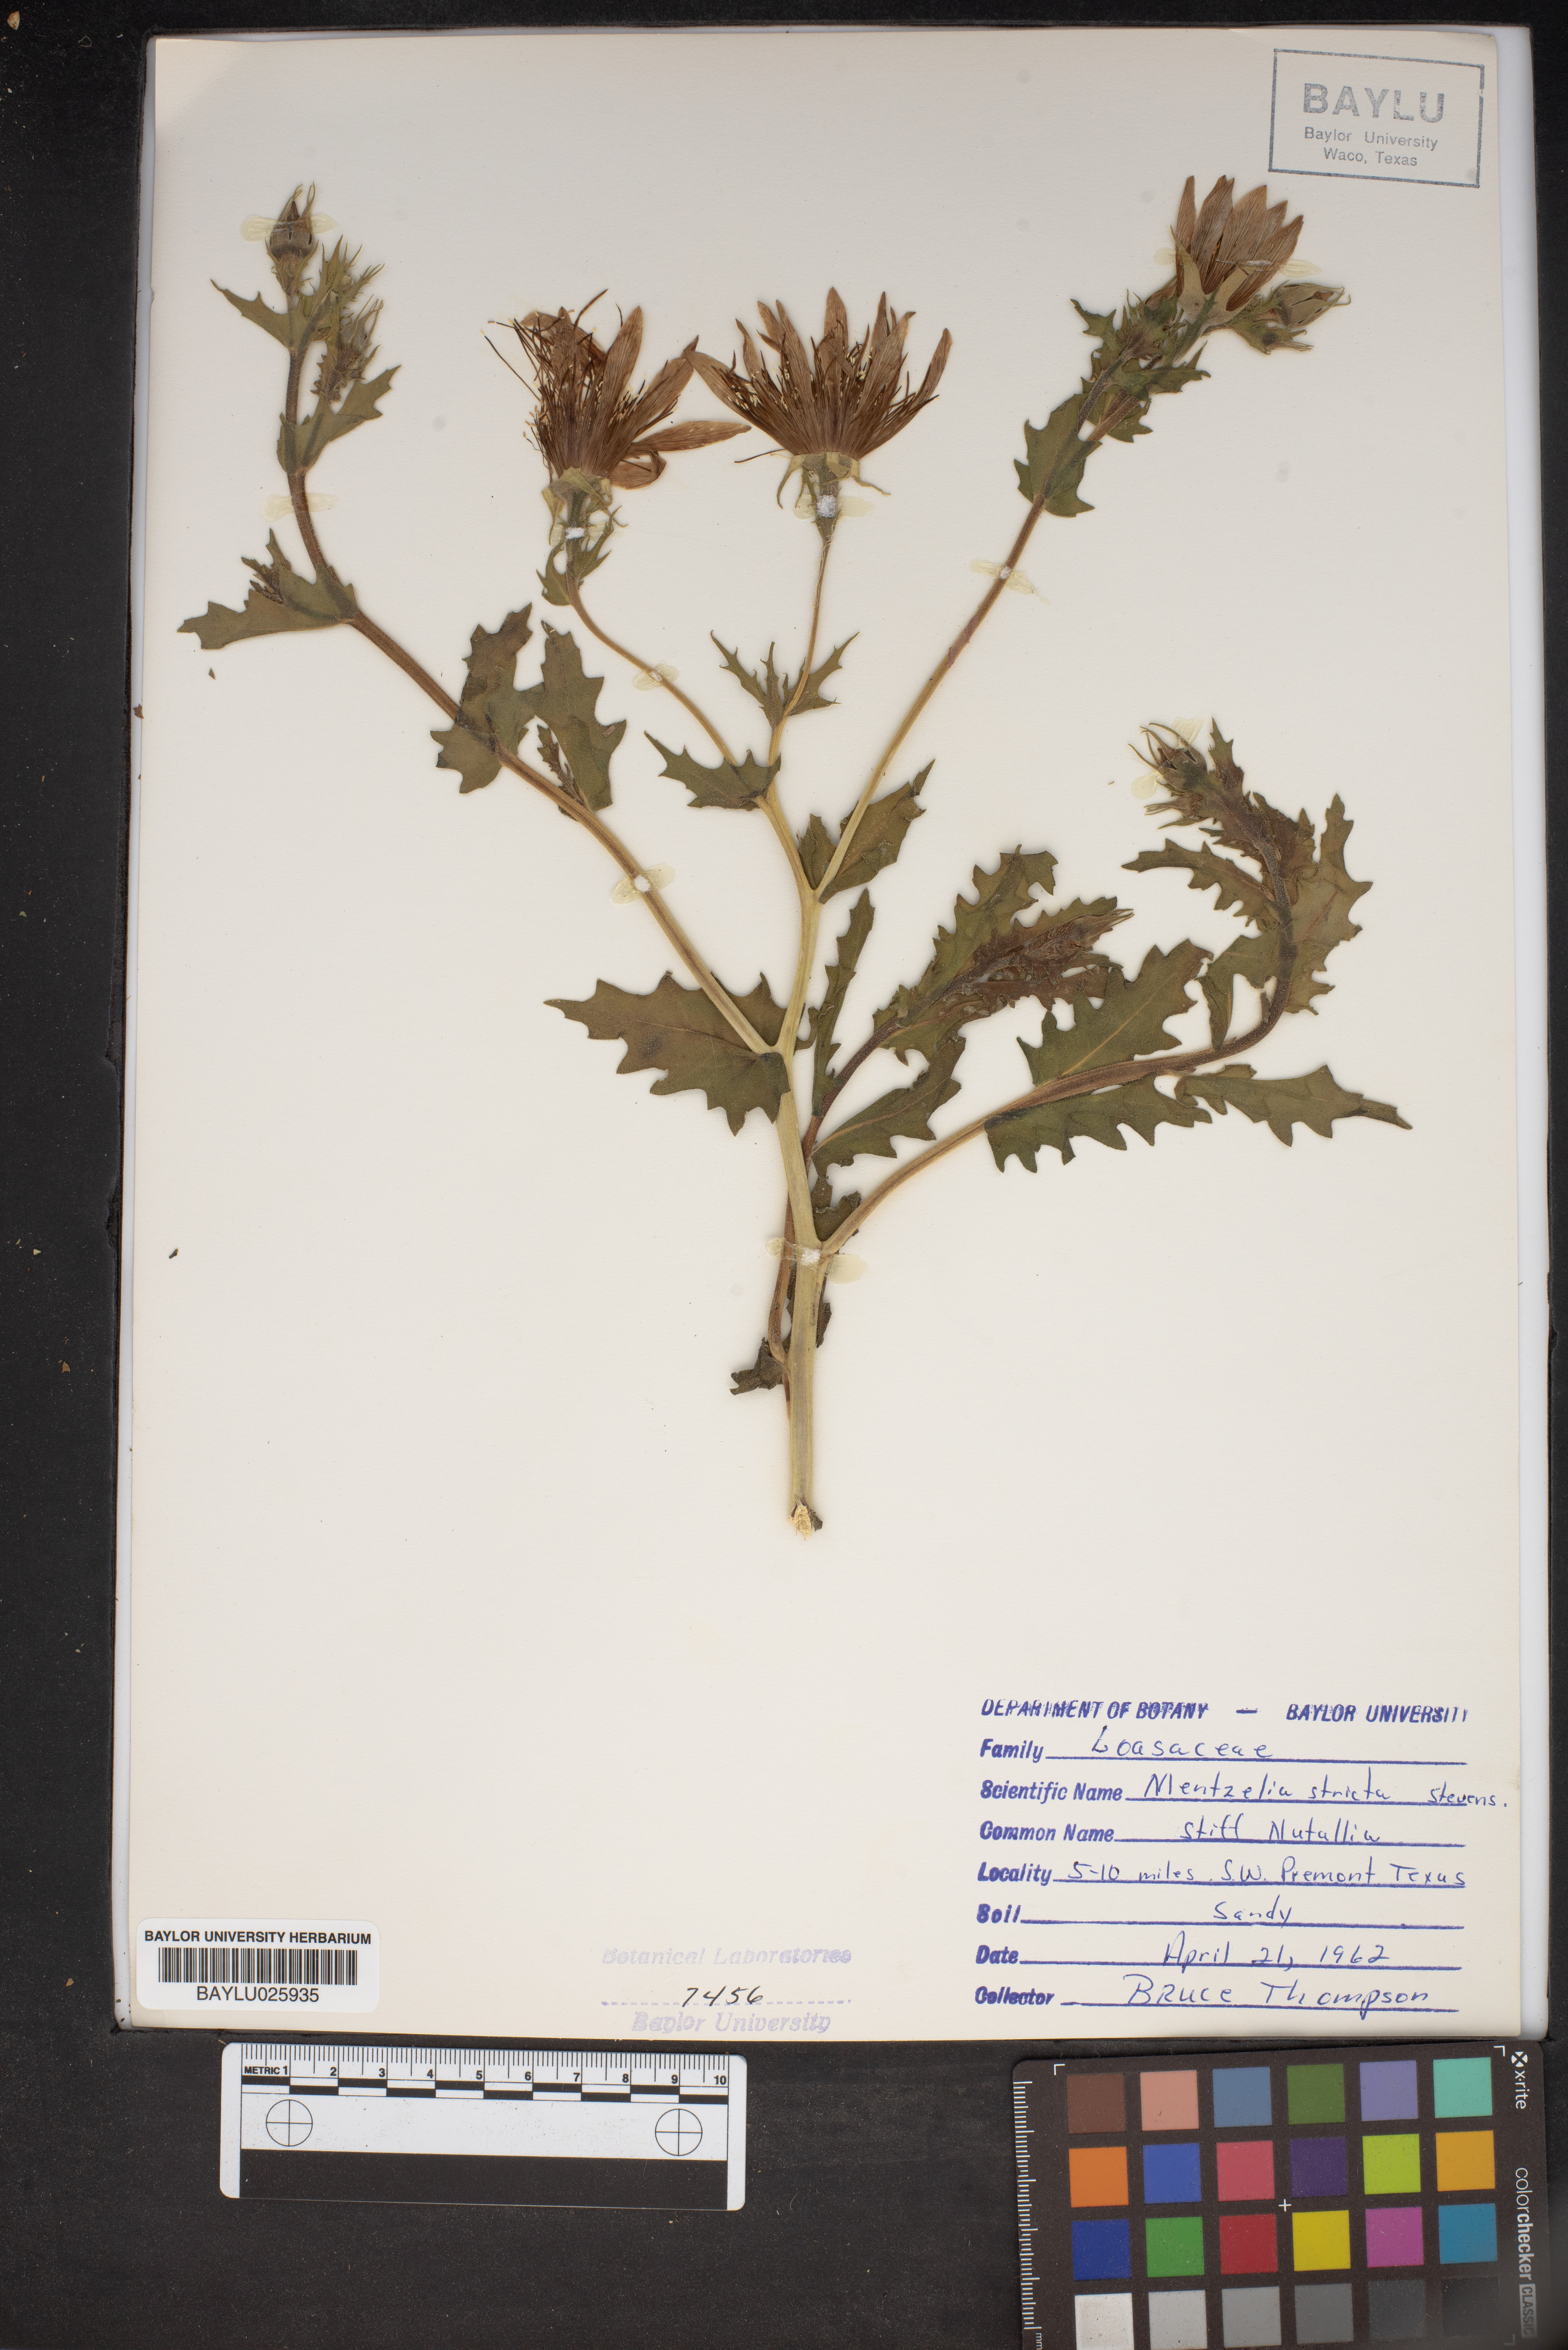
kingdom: Plantae
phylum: Tracheophyta
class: Magnoliopsida
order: Cornales
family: Loasaceae
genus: Mentzelia
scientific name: Mentzelia nuda
